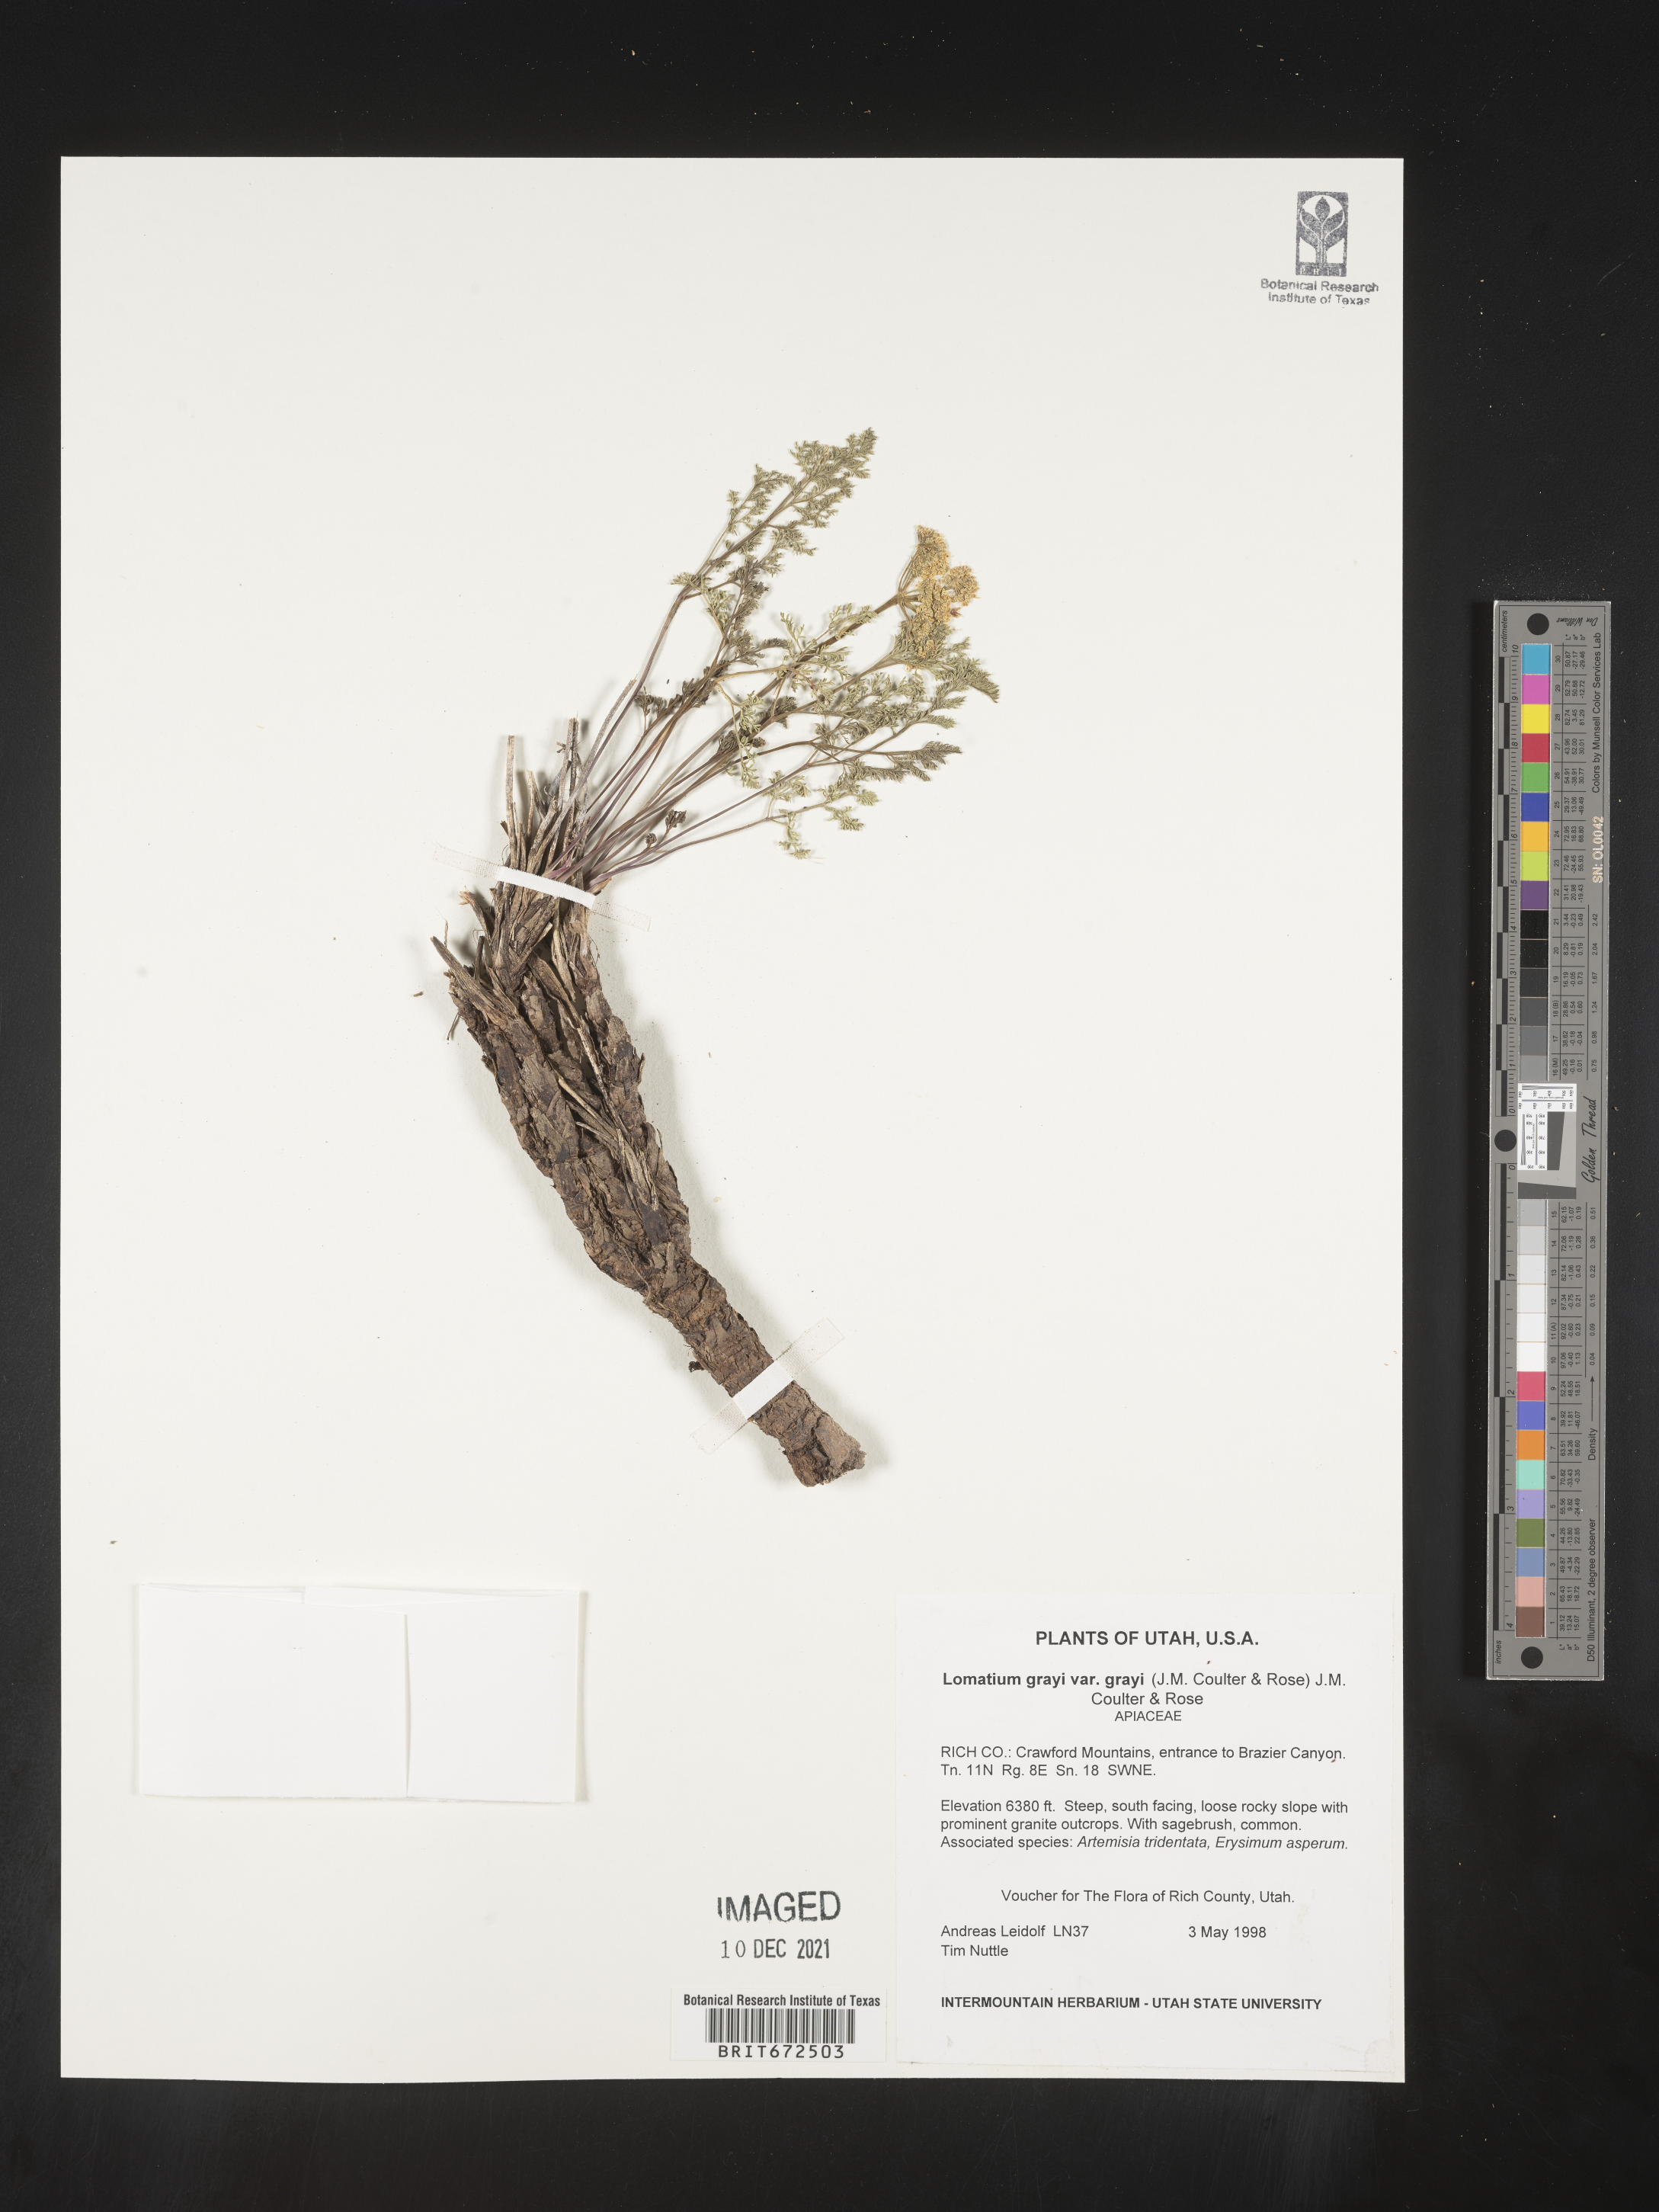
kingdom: Plantae
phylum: Tracheophyta
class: Magnoliopsida
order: Apiales
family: Apiaceae
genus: Lomatium
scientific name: Lomatium grayi
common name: Milfoil lomatium
